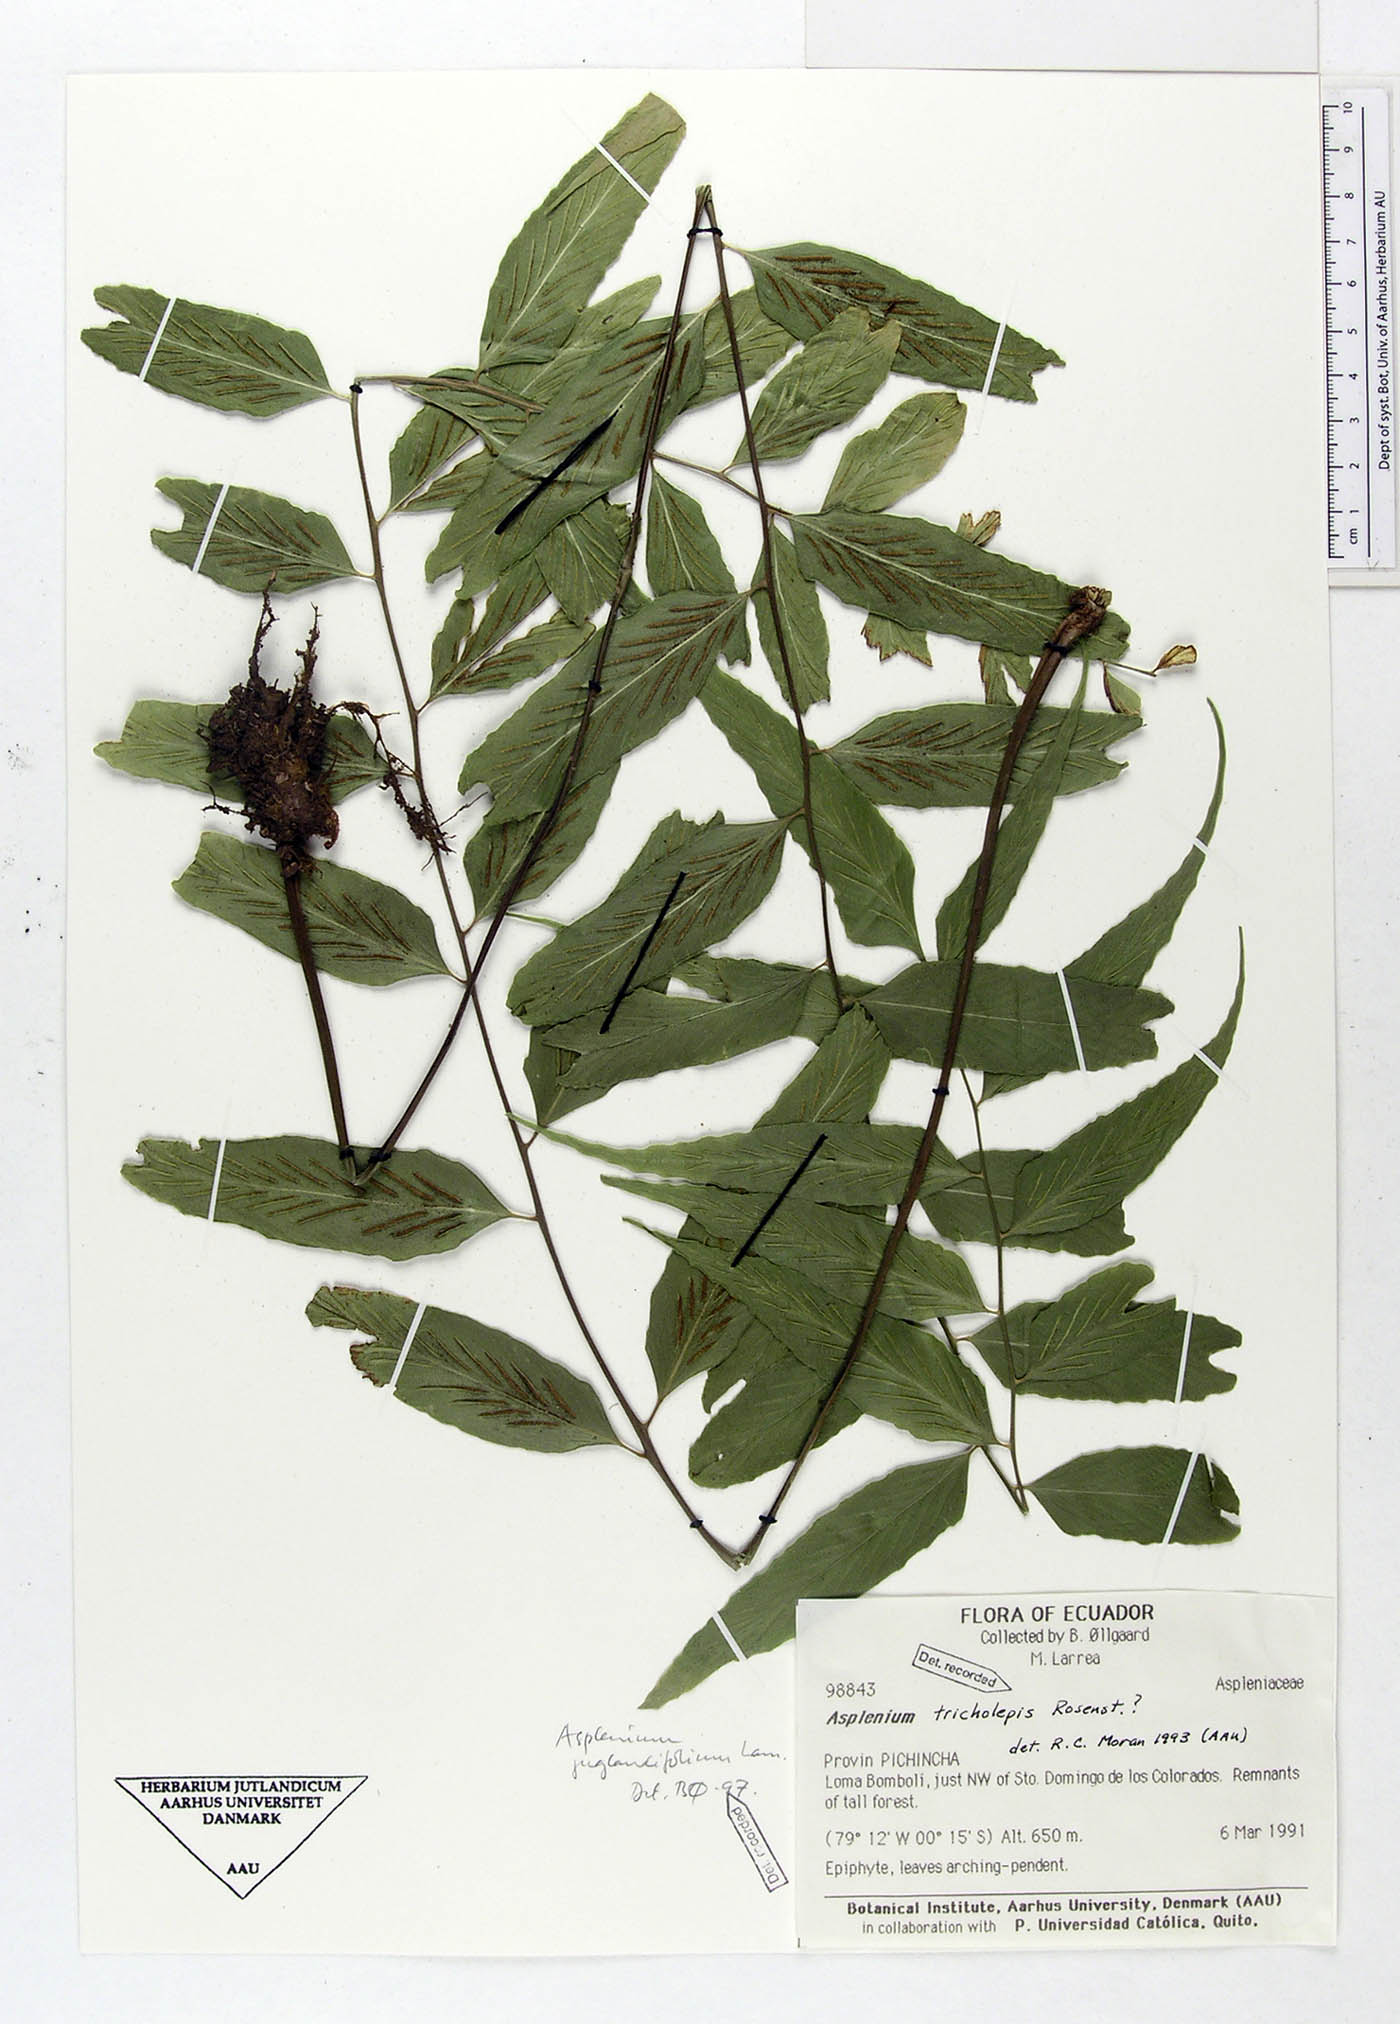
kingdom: Plantae
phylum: Tracheophyta
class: Polypodiopsida
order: Polypodiales
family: Aspleniaceae
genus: Asplenium
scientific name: Asplenium juglandifolium
